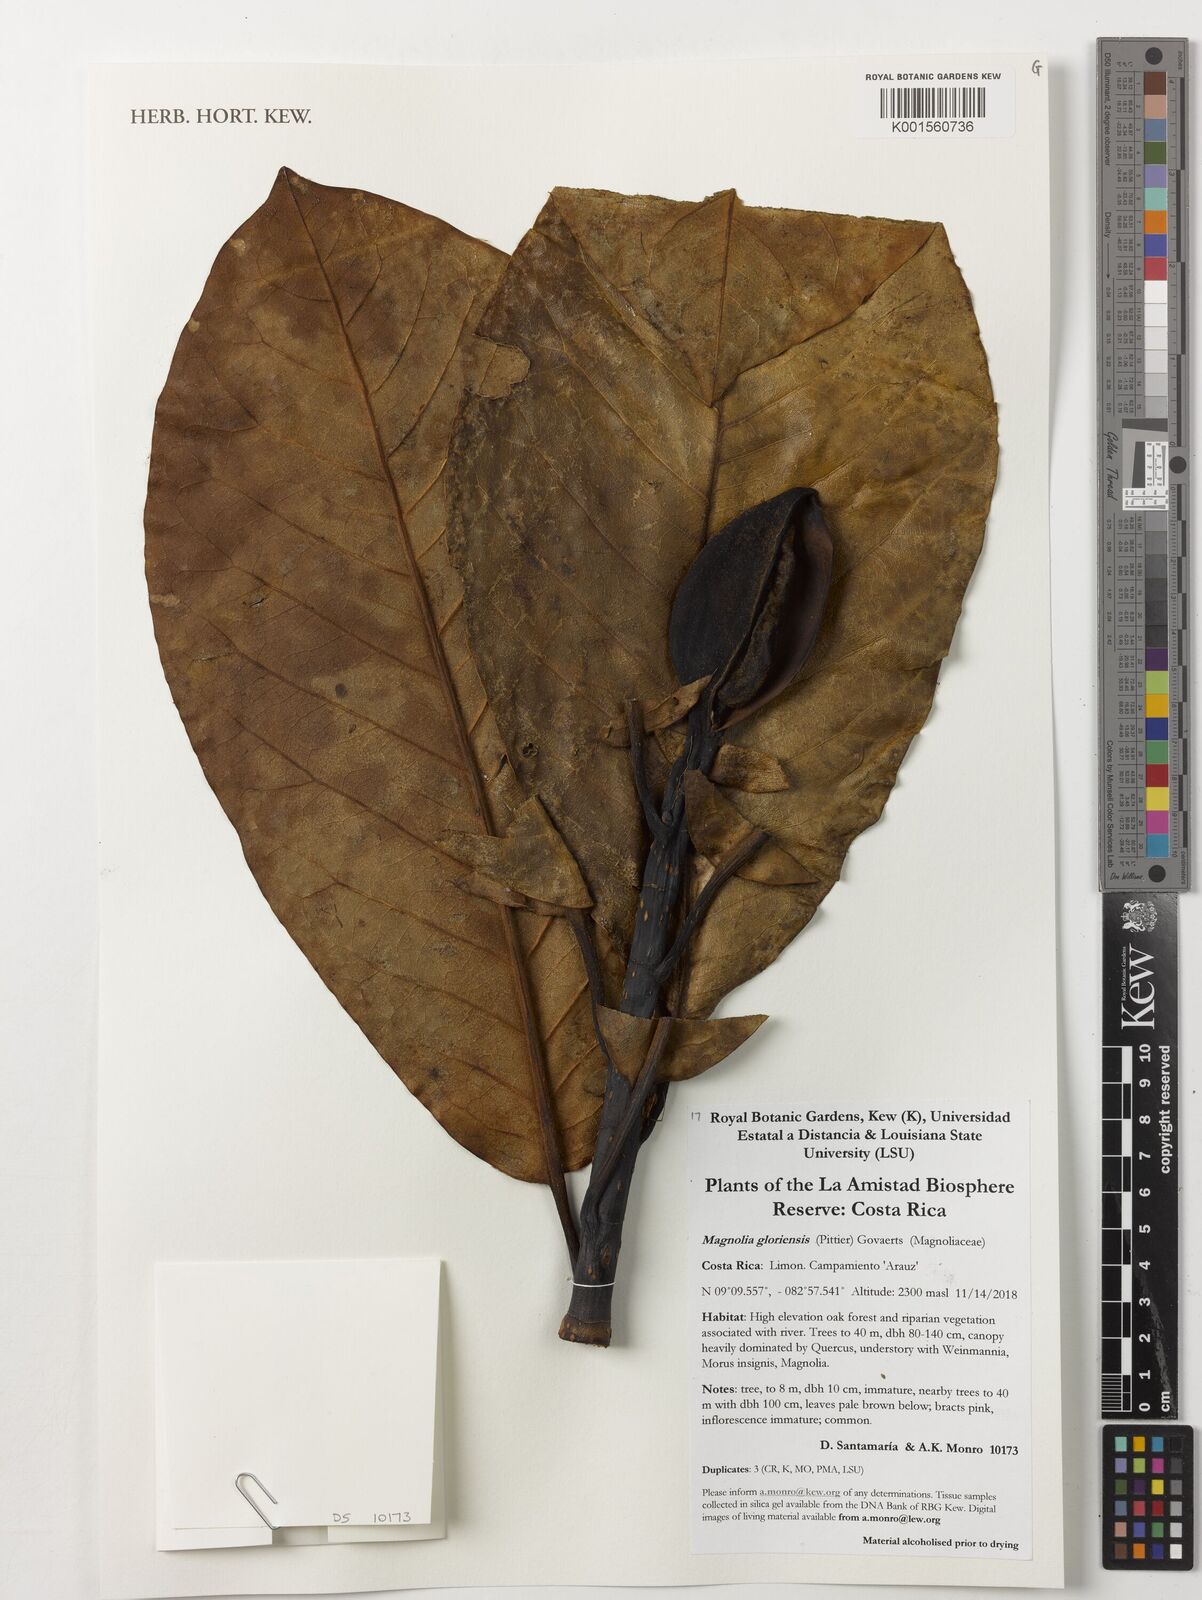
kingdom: Plantae
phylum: Tracheophyta
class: Magnoliopsida
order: Magnoliales
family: Magnoliaceae
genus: Magnolia
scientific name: Magnolia gloriensis
